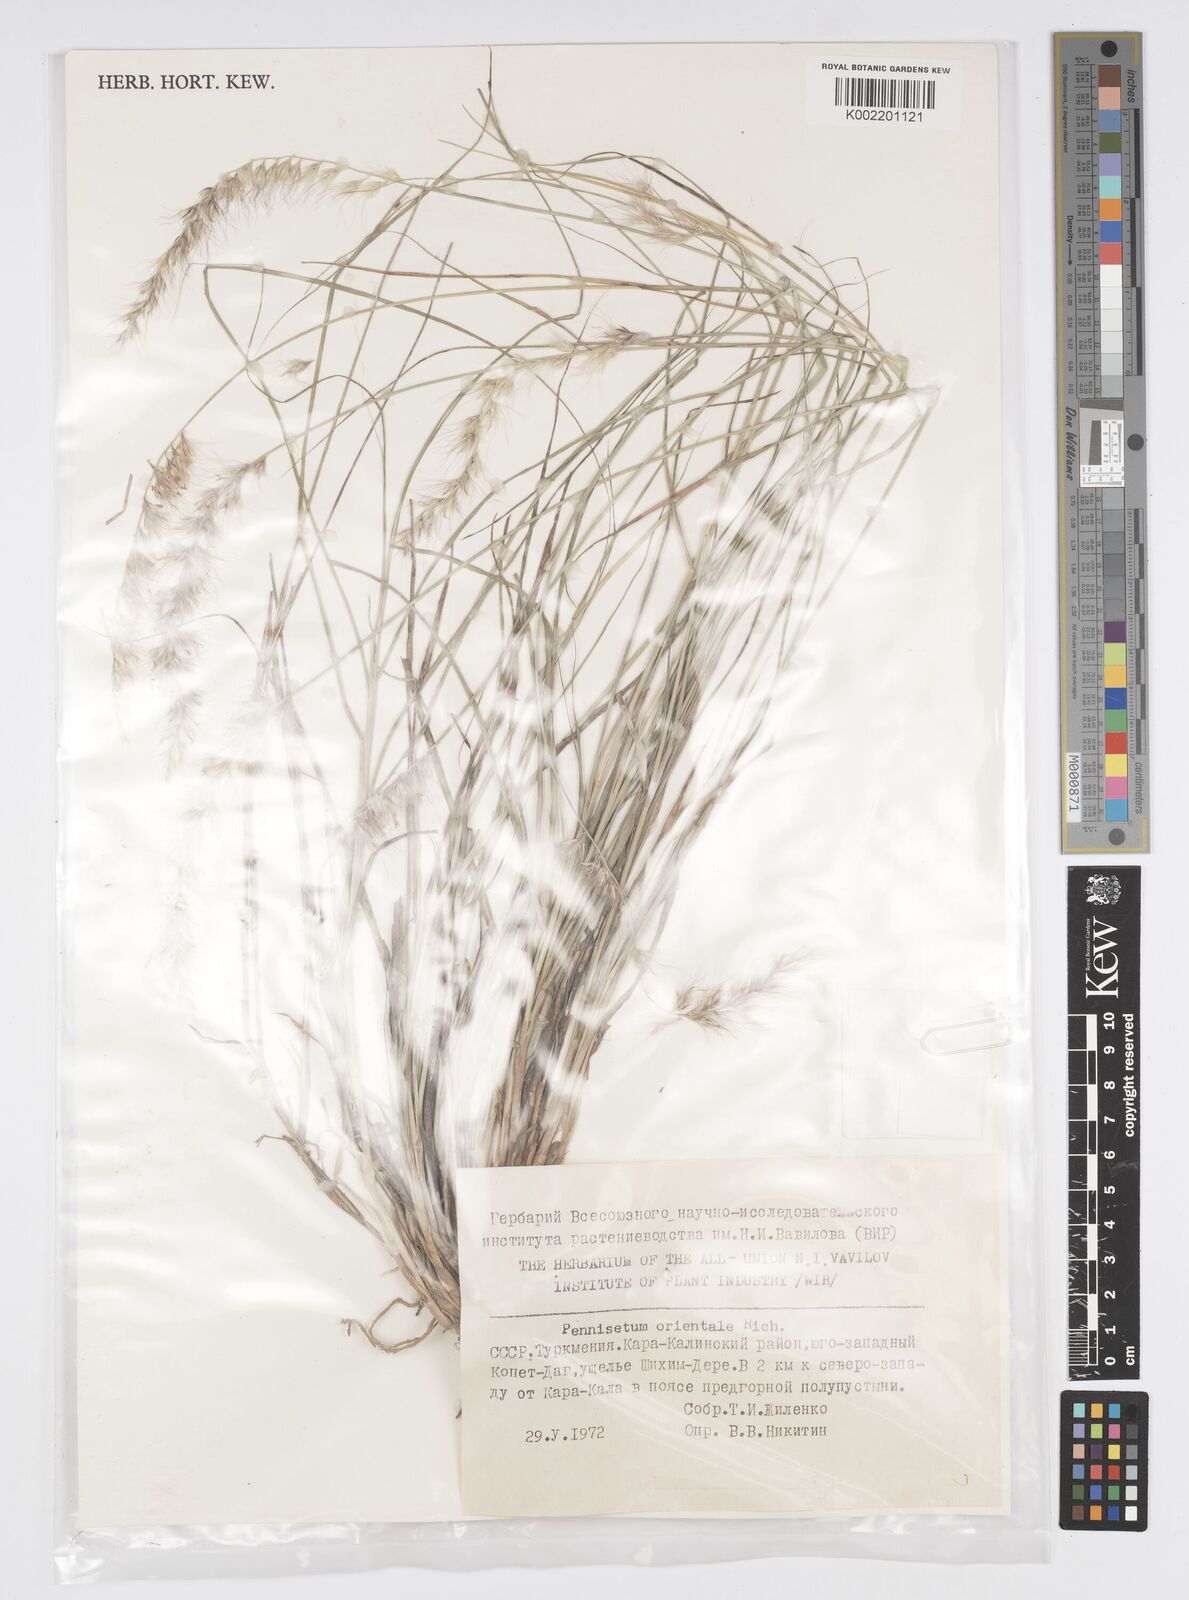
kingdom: Plantae
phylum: Tracheophyta
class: Liliopsida
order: Poales
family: Poaceae
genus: Cenchrus
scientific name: Cenchrus orientalis
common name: Oriental fountain grass
